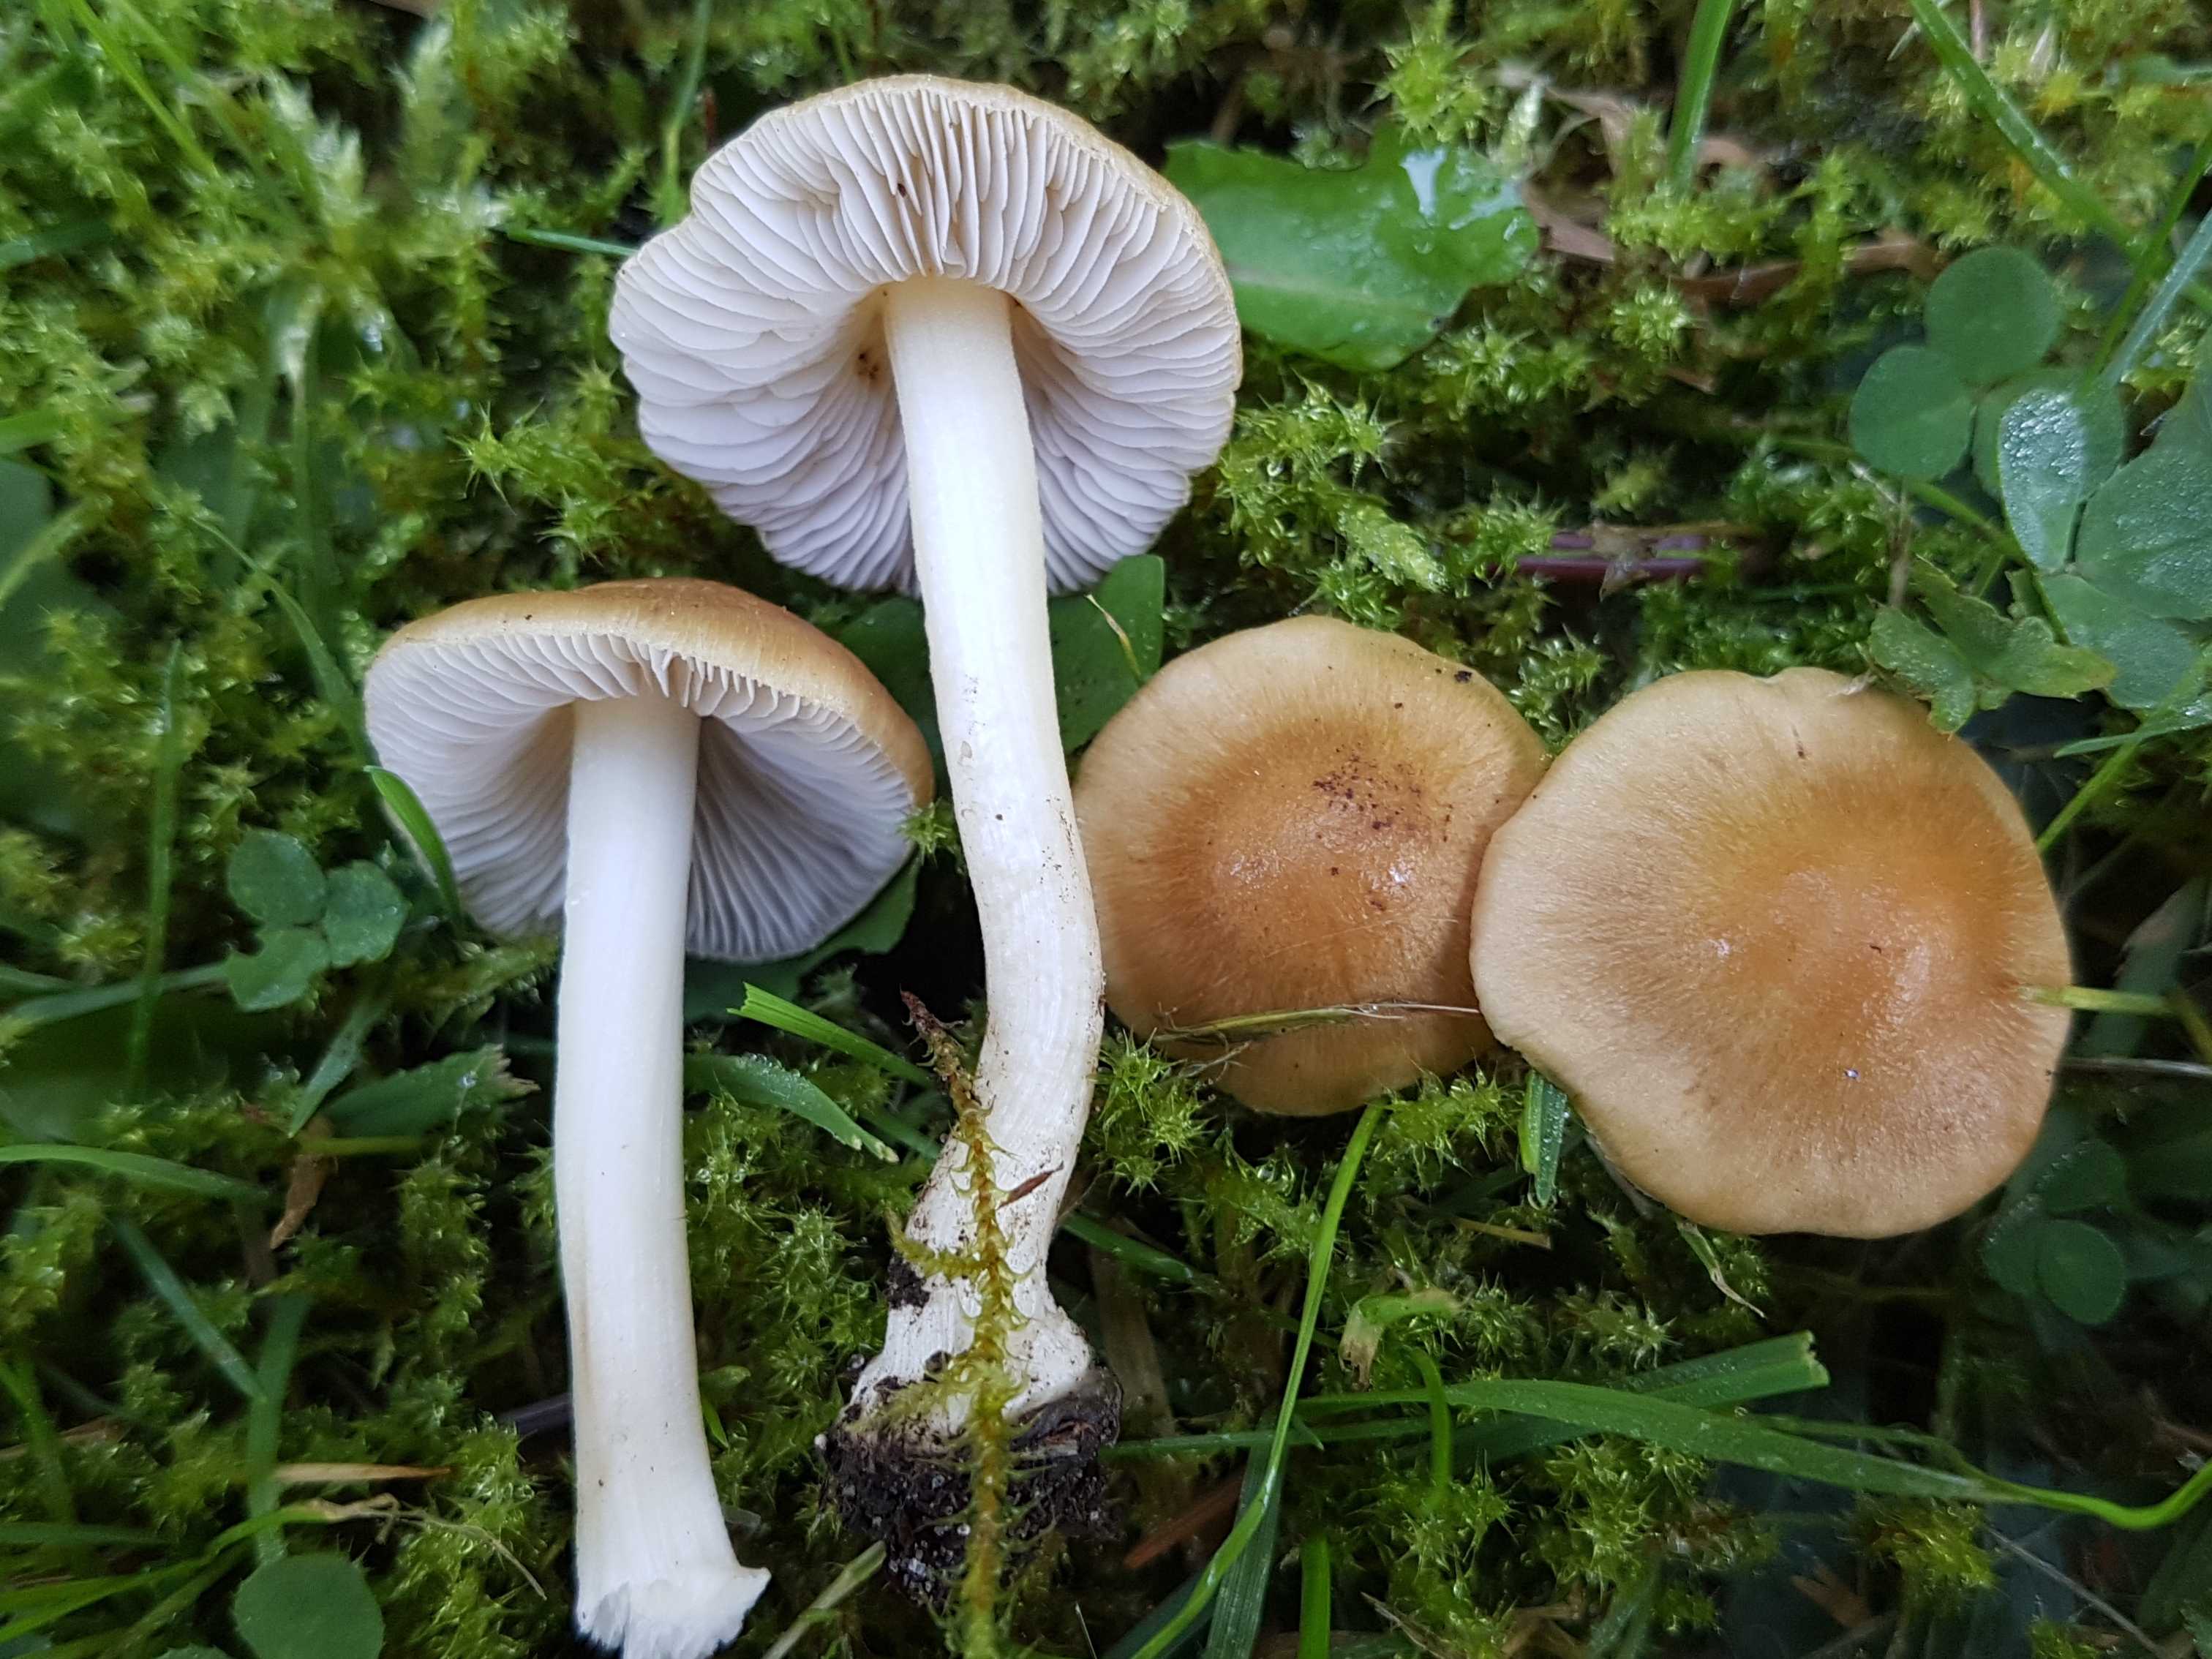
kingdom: Fungi
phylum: Basidiomycota
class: Agaricomycetes
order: Agaricales
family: Inocybaceae
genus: Inocybe
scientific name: Inocybe mixtilis
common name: randknoldet trævlhat
